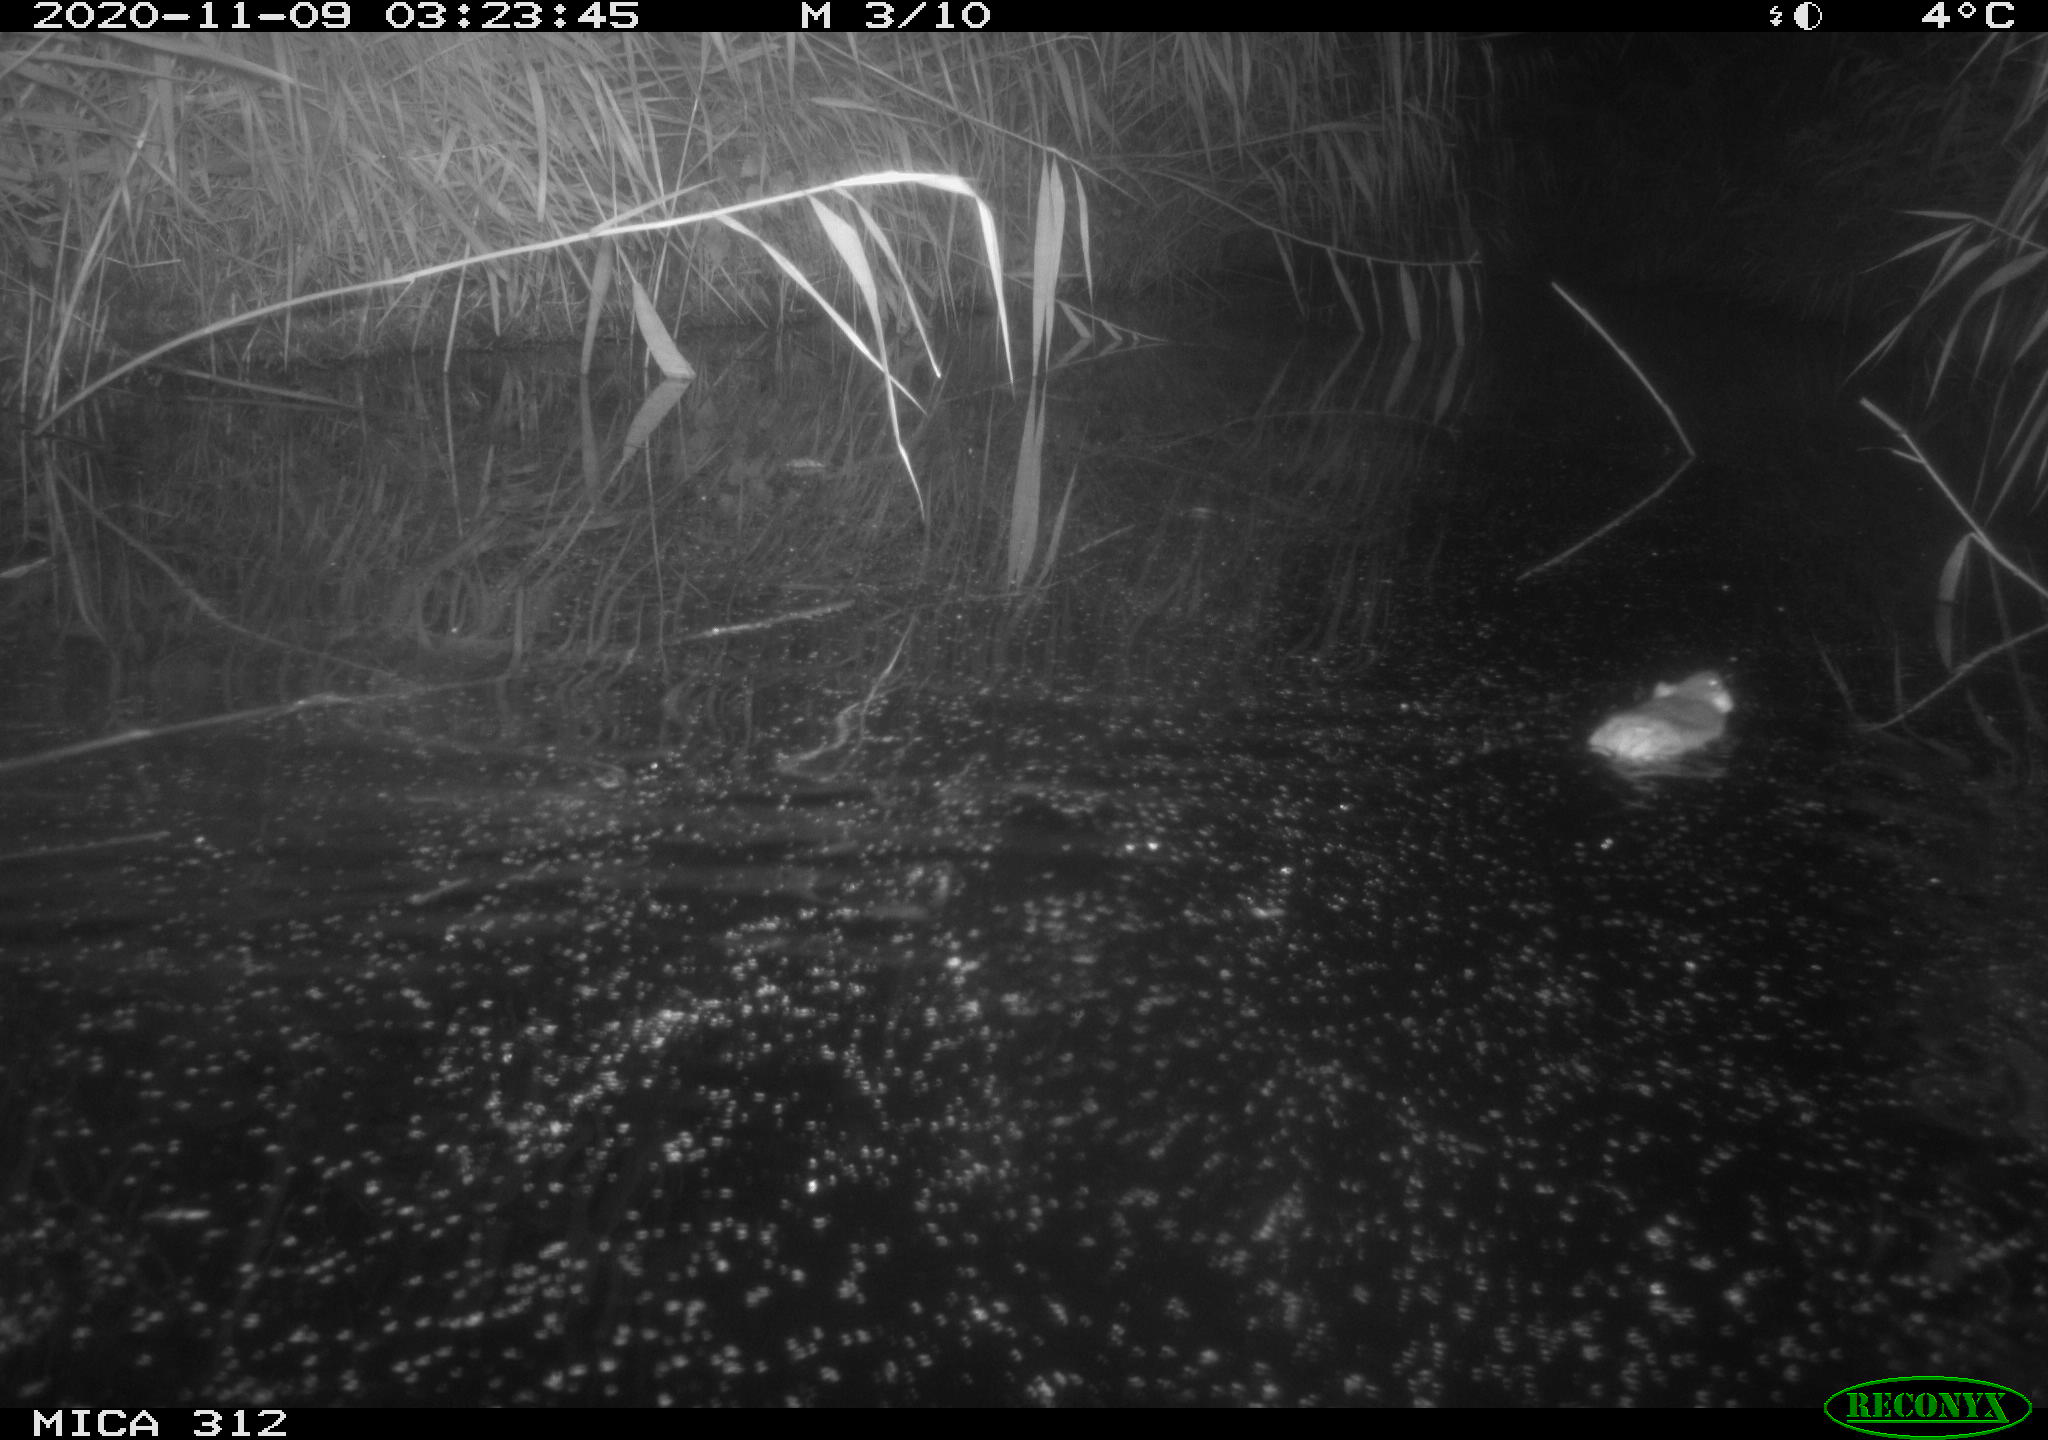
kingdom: Animalia
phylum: Chordata
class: Mammalia
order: Rodentia
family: Muridae
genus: Rattus
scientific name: Rattus norvegicus
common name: Brown rat
